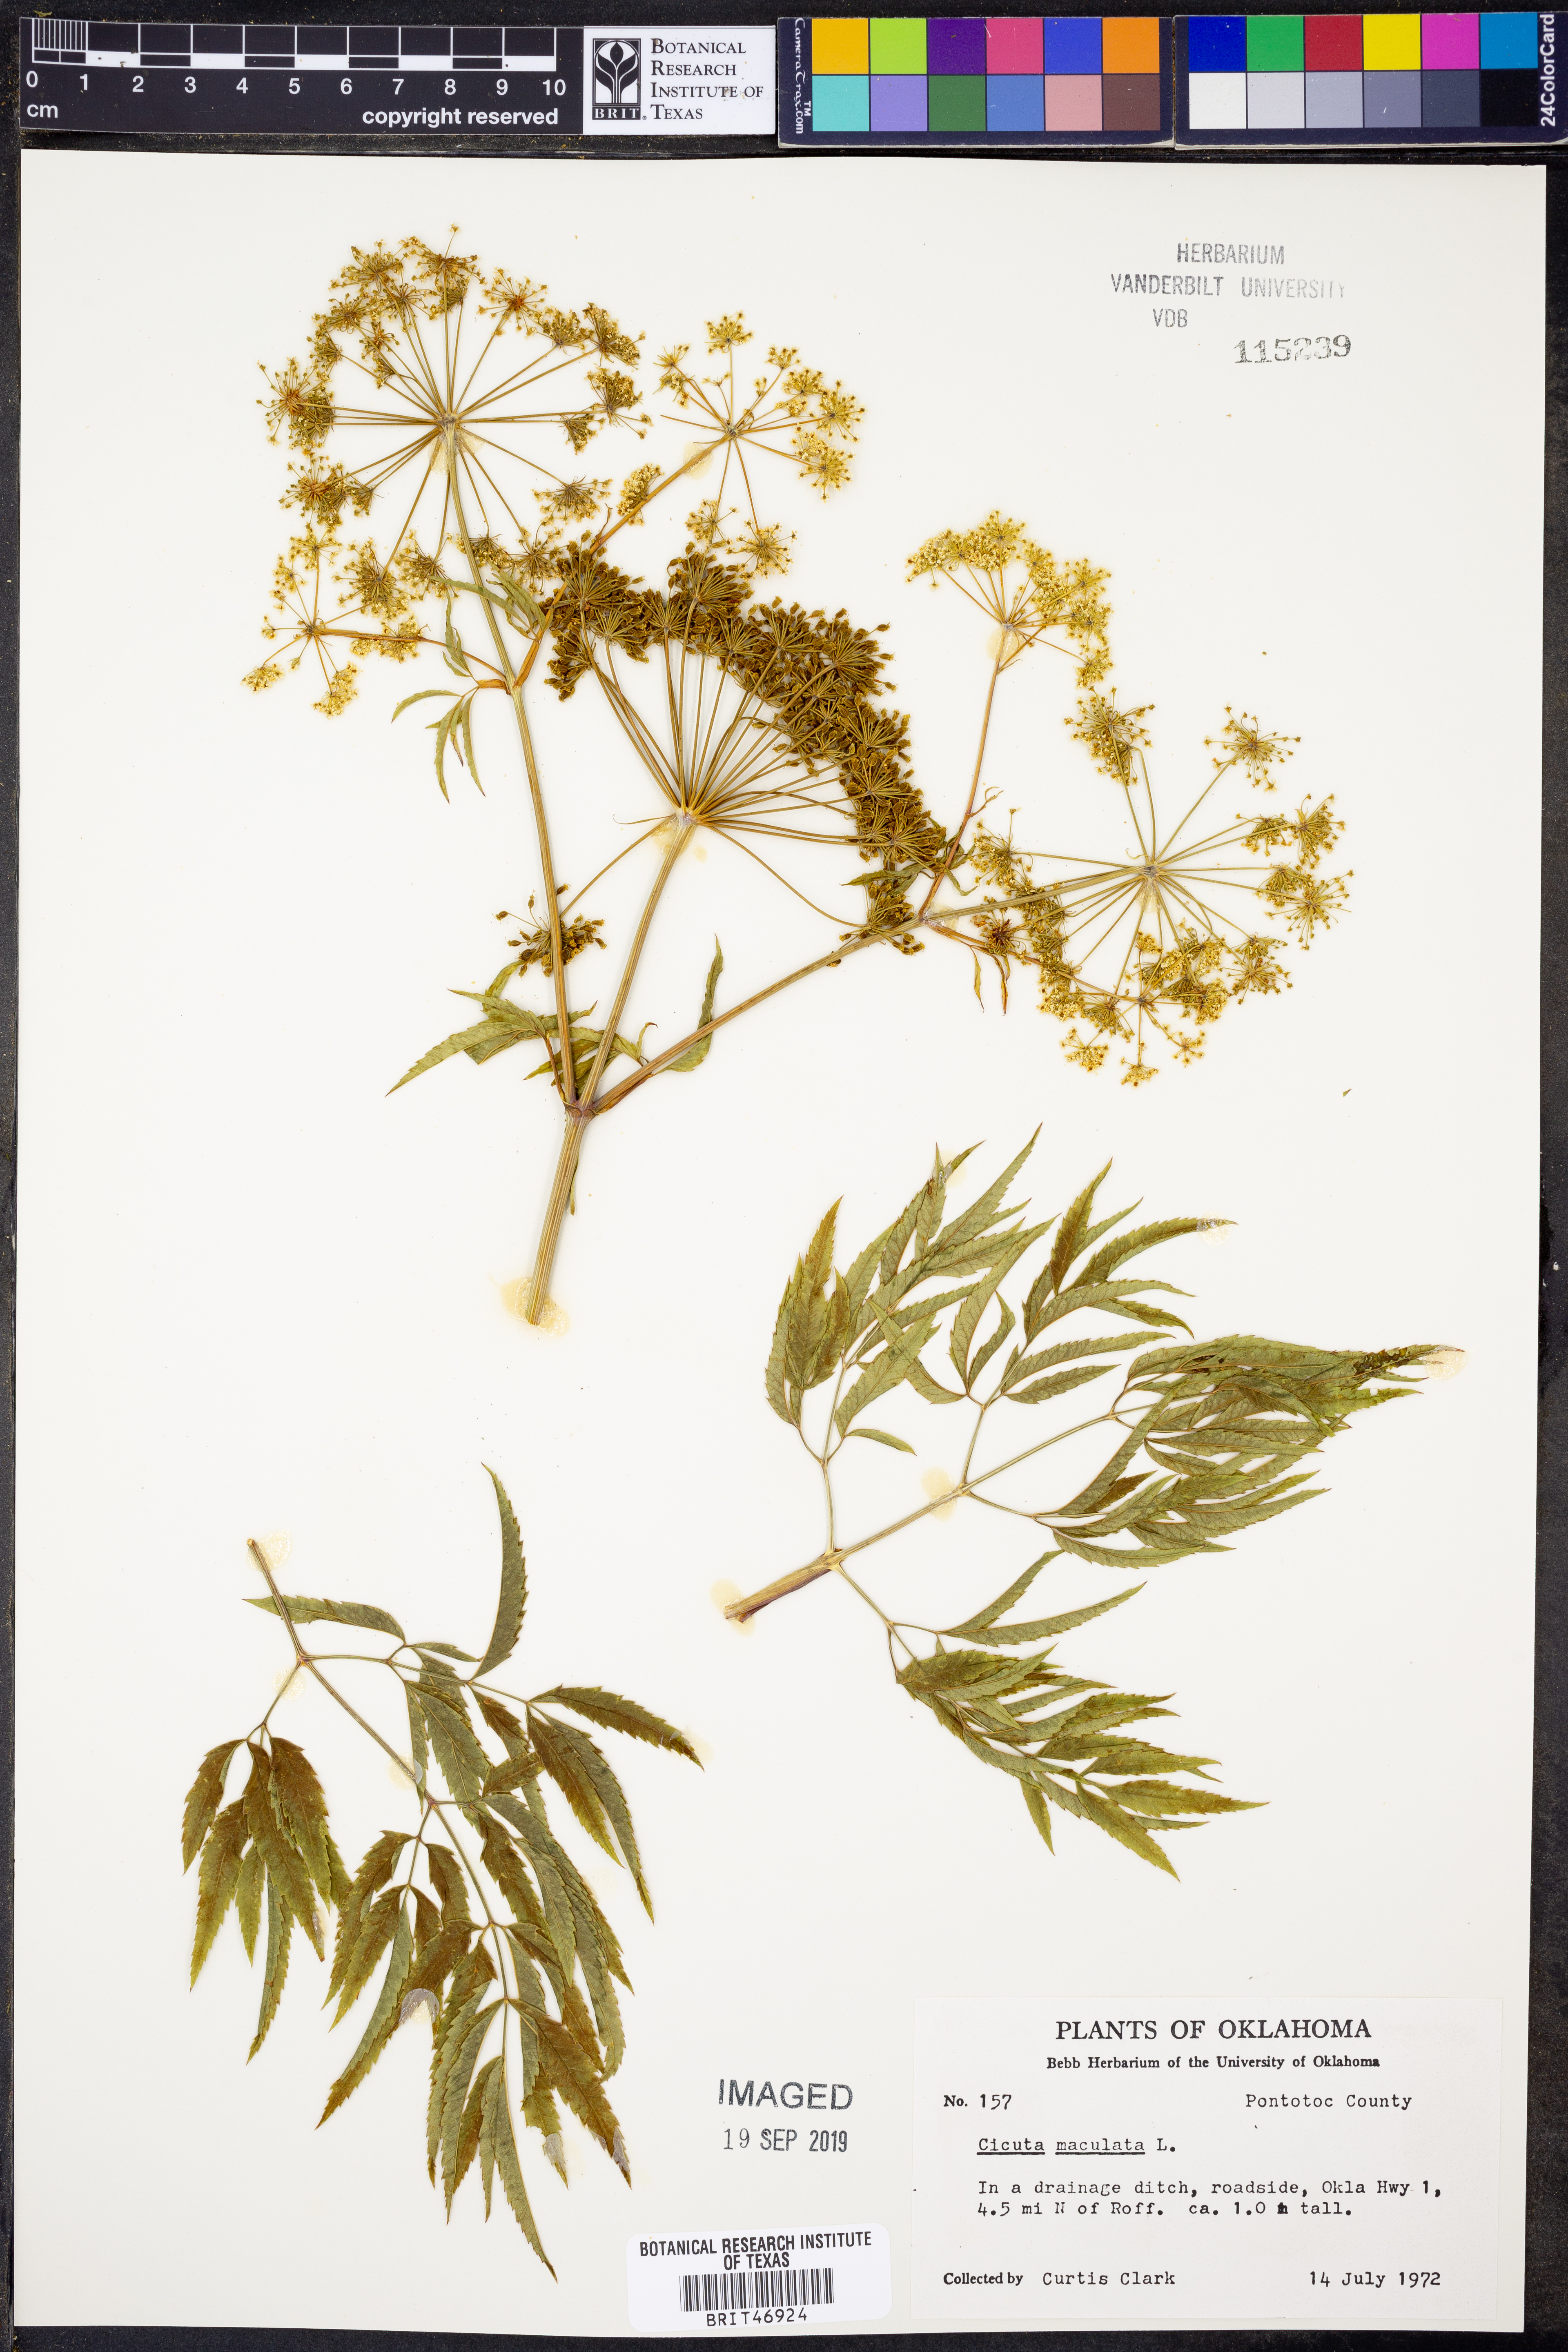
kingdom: Plantae
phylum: Tracheophyta
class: Magnoliopsida
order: Apiales
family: Apiaceae
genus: Cicuta
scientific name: Cicuta maculata
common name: Spotted cowbane
